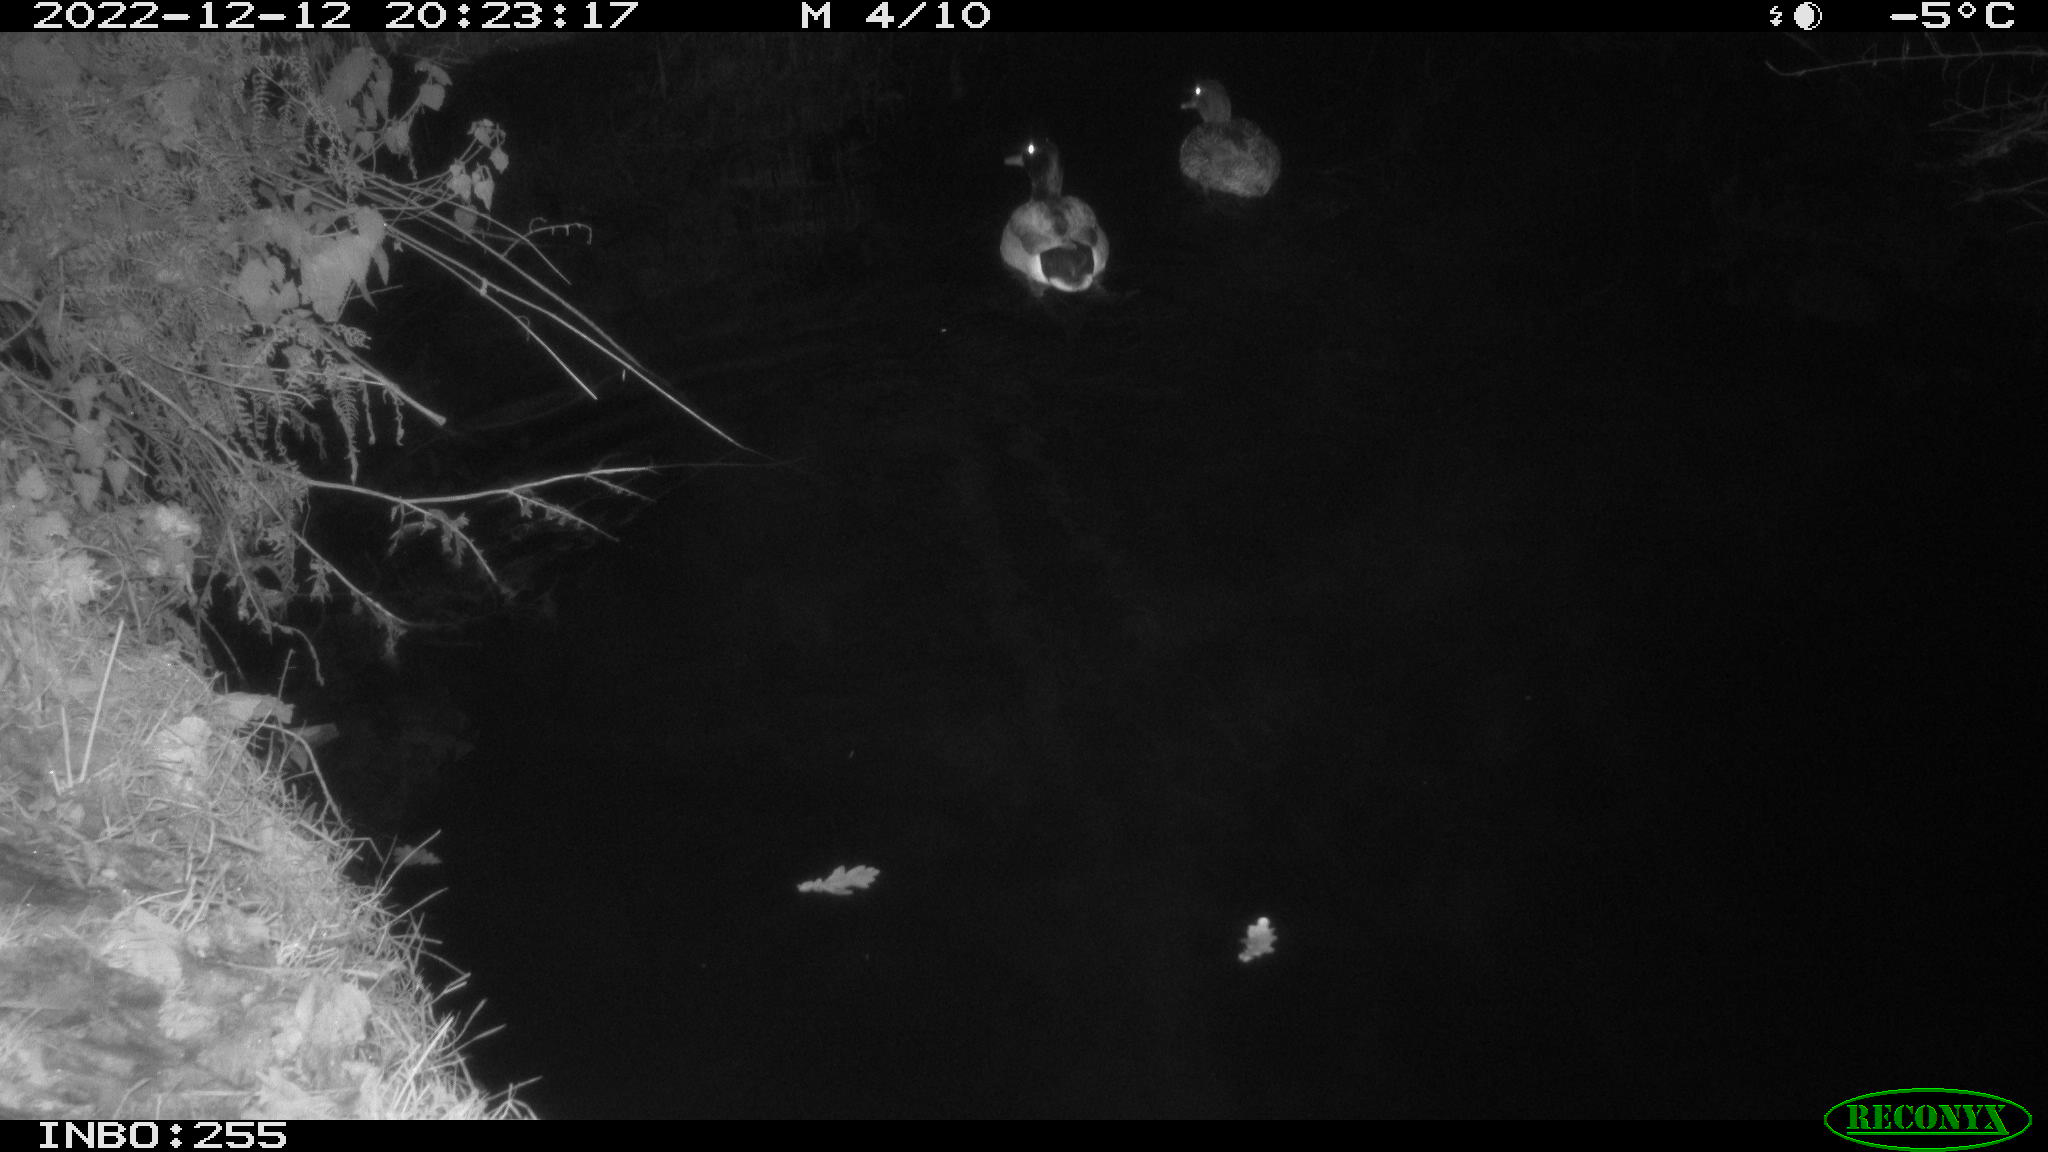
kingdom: Animalia
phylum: Chordata
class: Aves
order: Anseriformes
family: Anatidae
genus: Anas
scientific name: Anas
